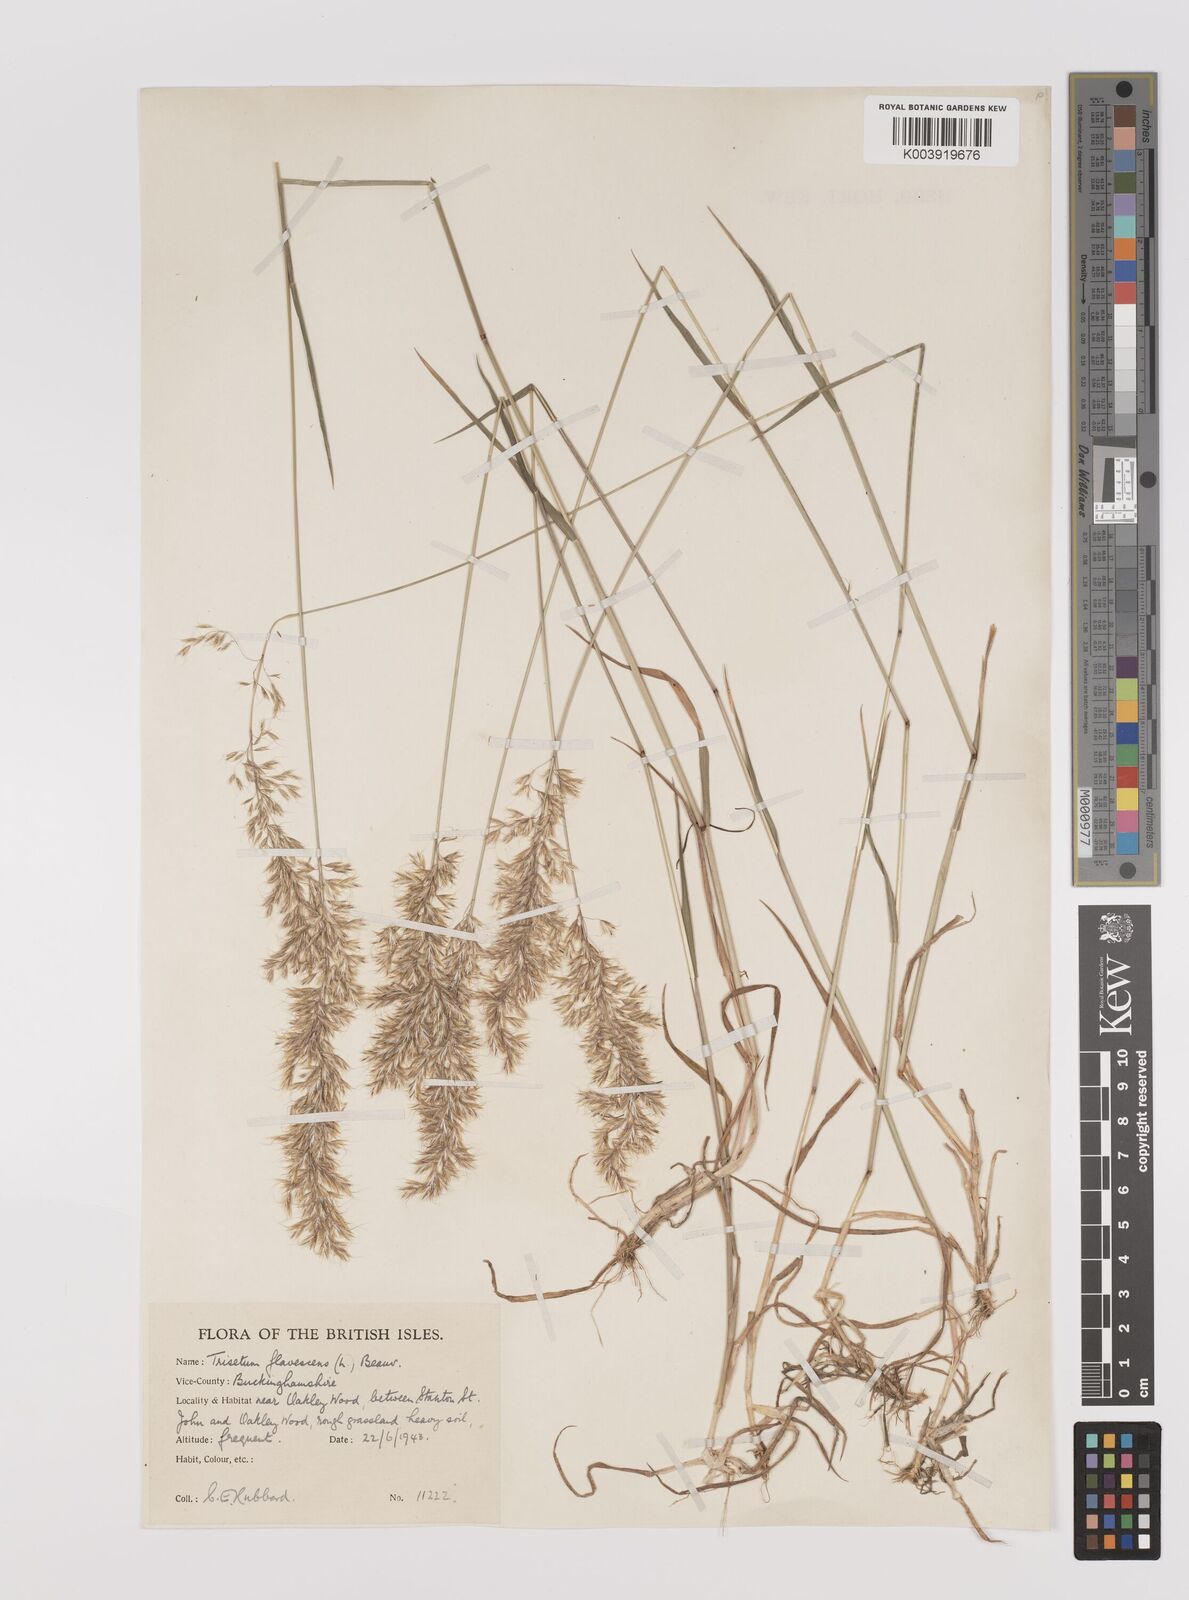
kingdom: Plantae
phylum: Tracheophyta
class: Liliopsida
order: Poales
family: Poaceae
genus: Trisetum
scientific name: Trisetum flavescens
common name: Yellow oat-grass
